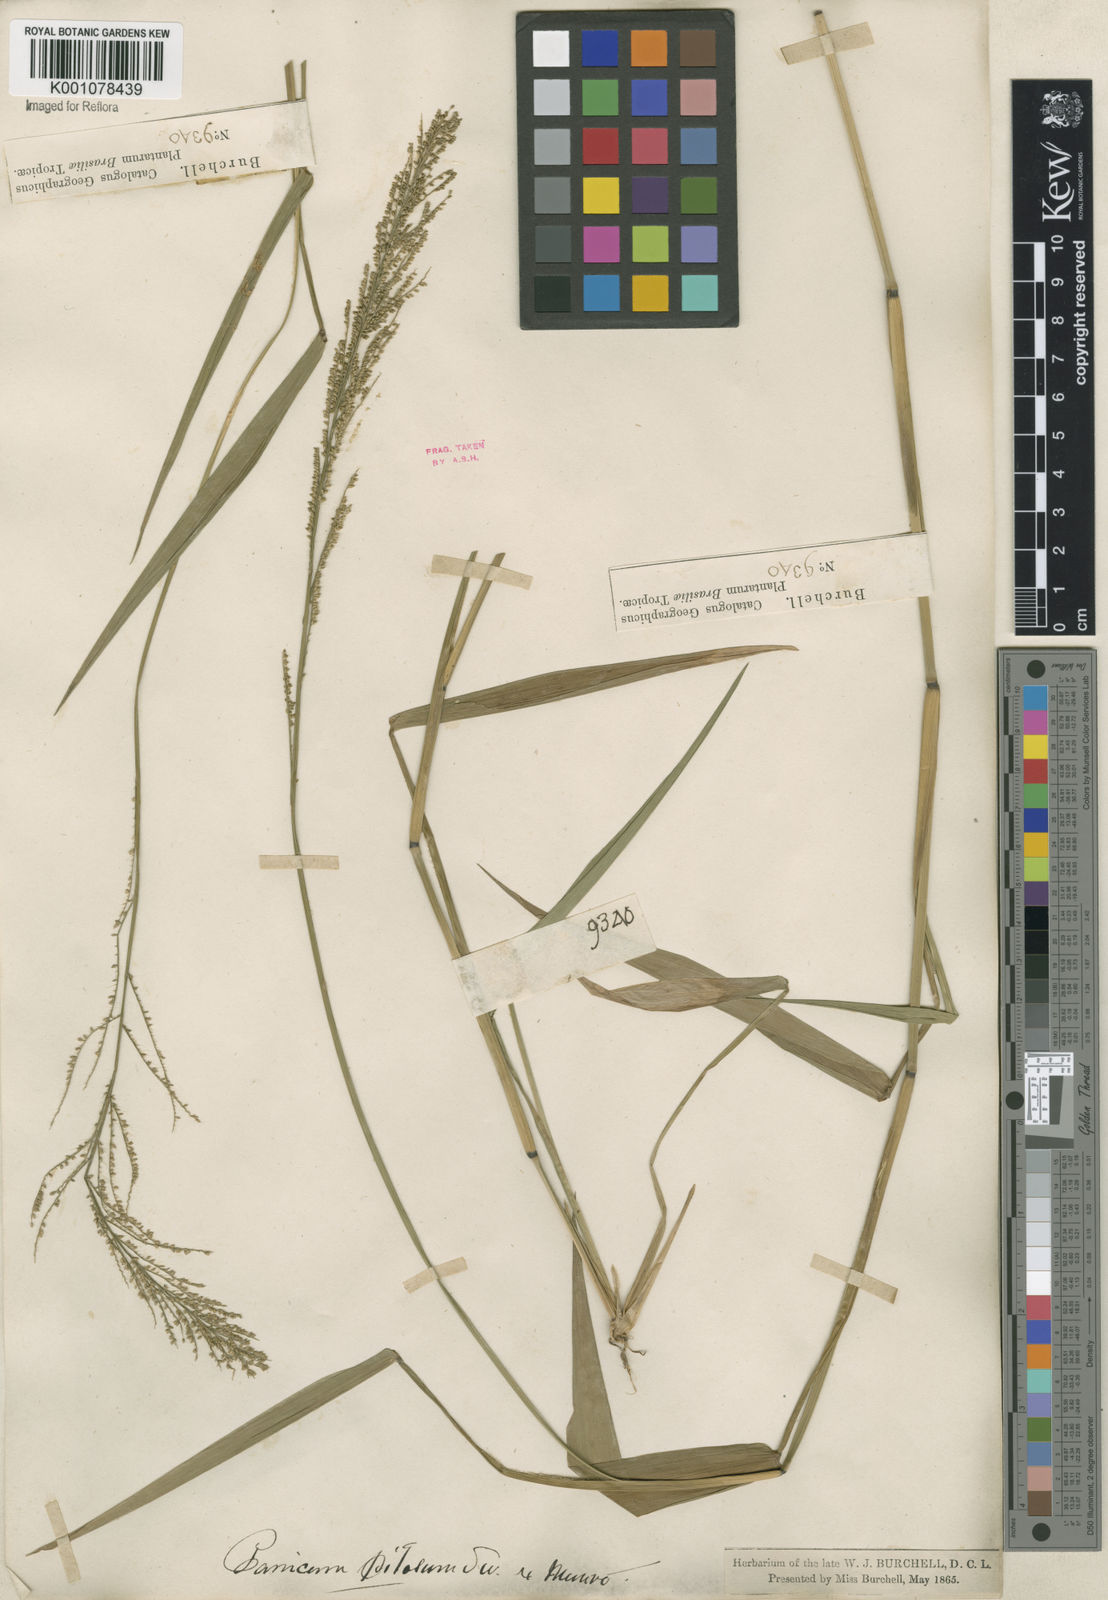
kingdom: Plantae
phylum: Tracheophyta
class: Liliopsida
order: Poales
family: Poaceae
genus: Rugoloa
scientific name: Rugoloa pilosa
